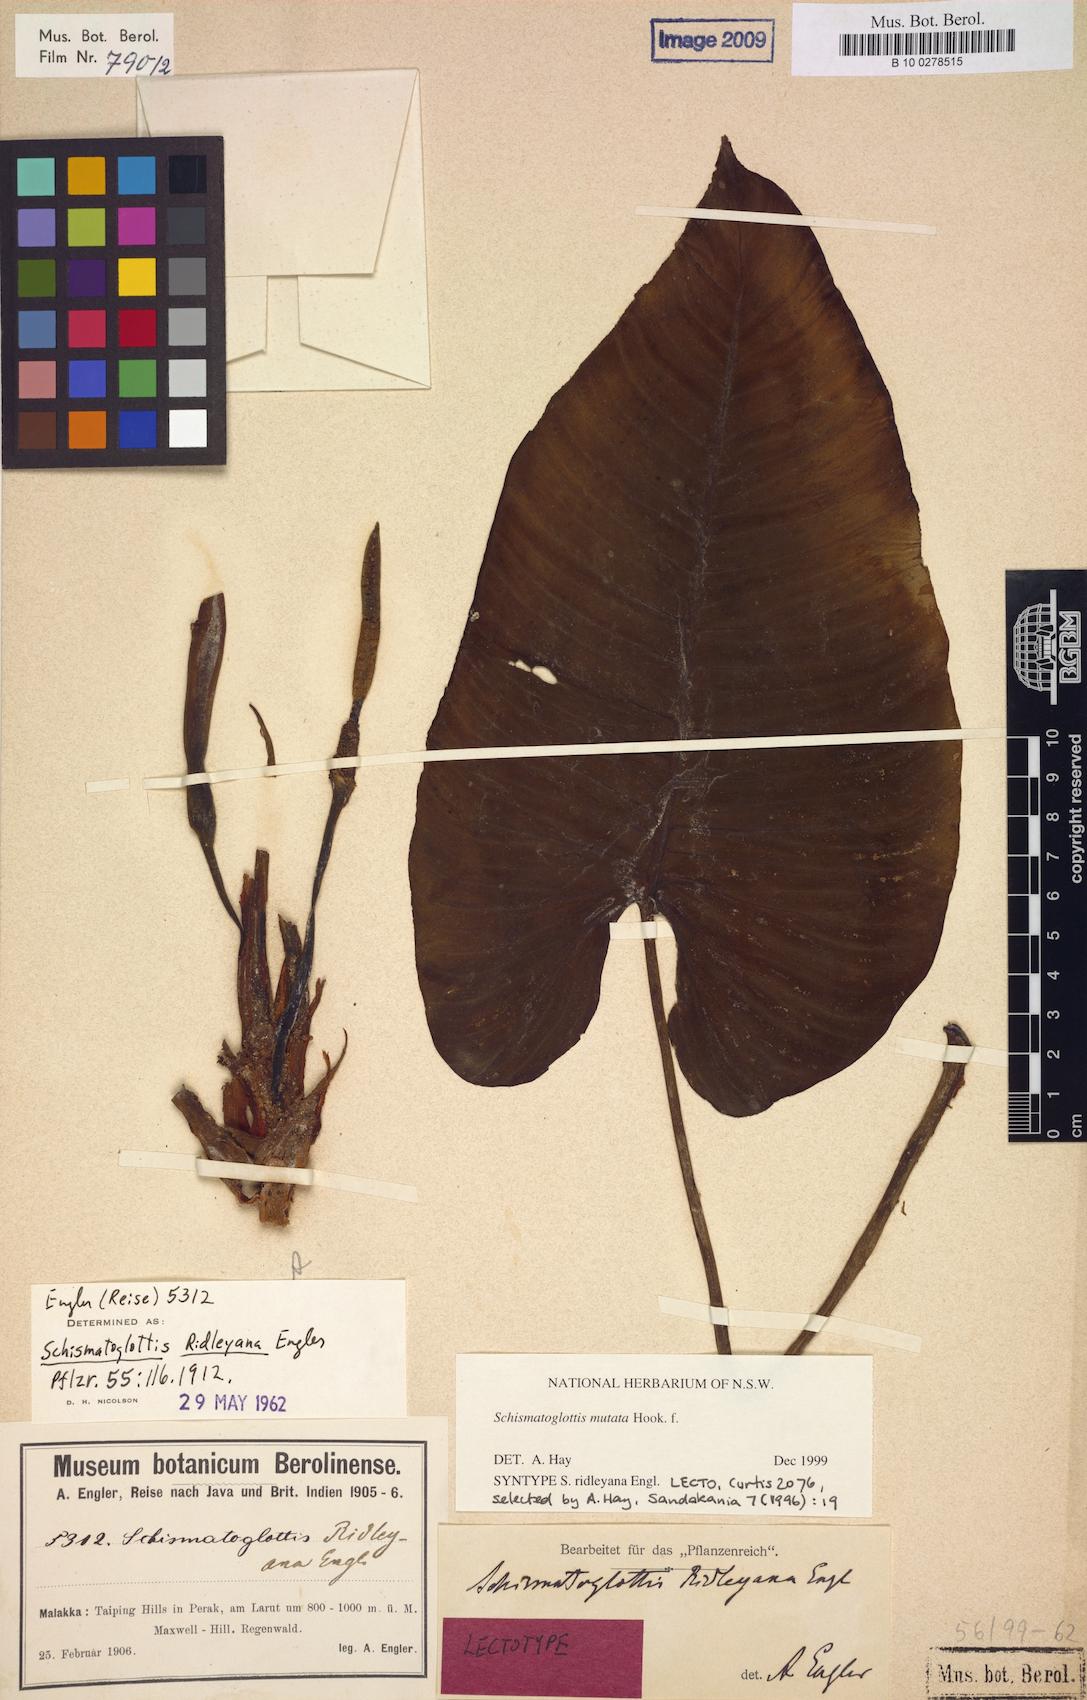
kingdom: Plantae
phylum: Tracheophyta
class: Liliopsida
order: Alismatales
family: Araceae
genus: Apoballis
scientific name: Apoballis mutata
